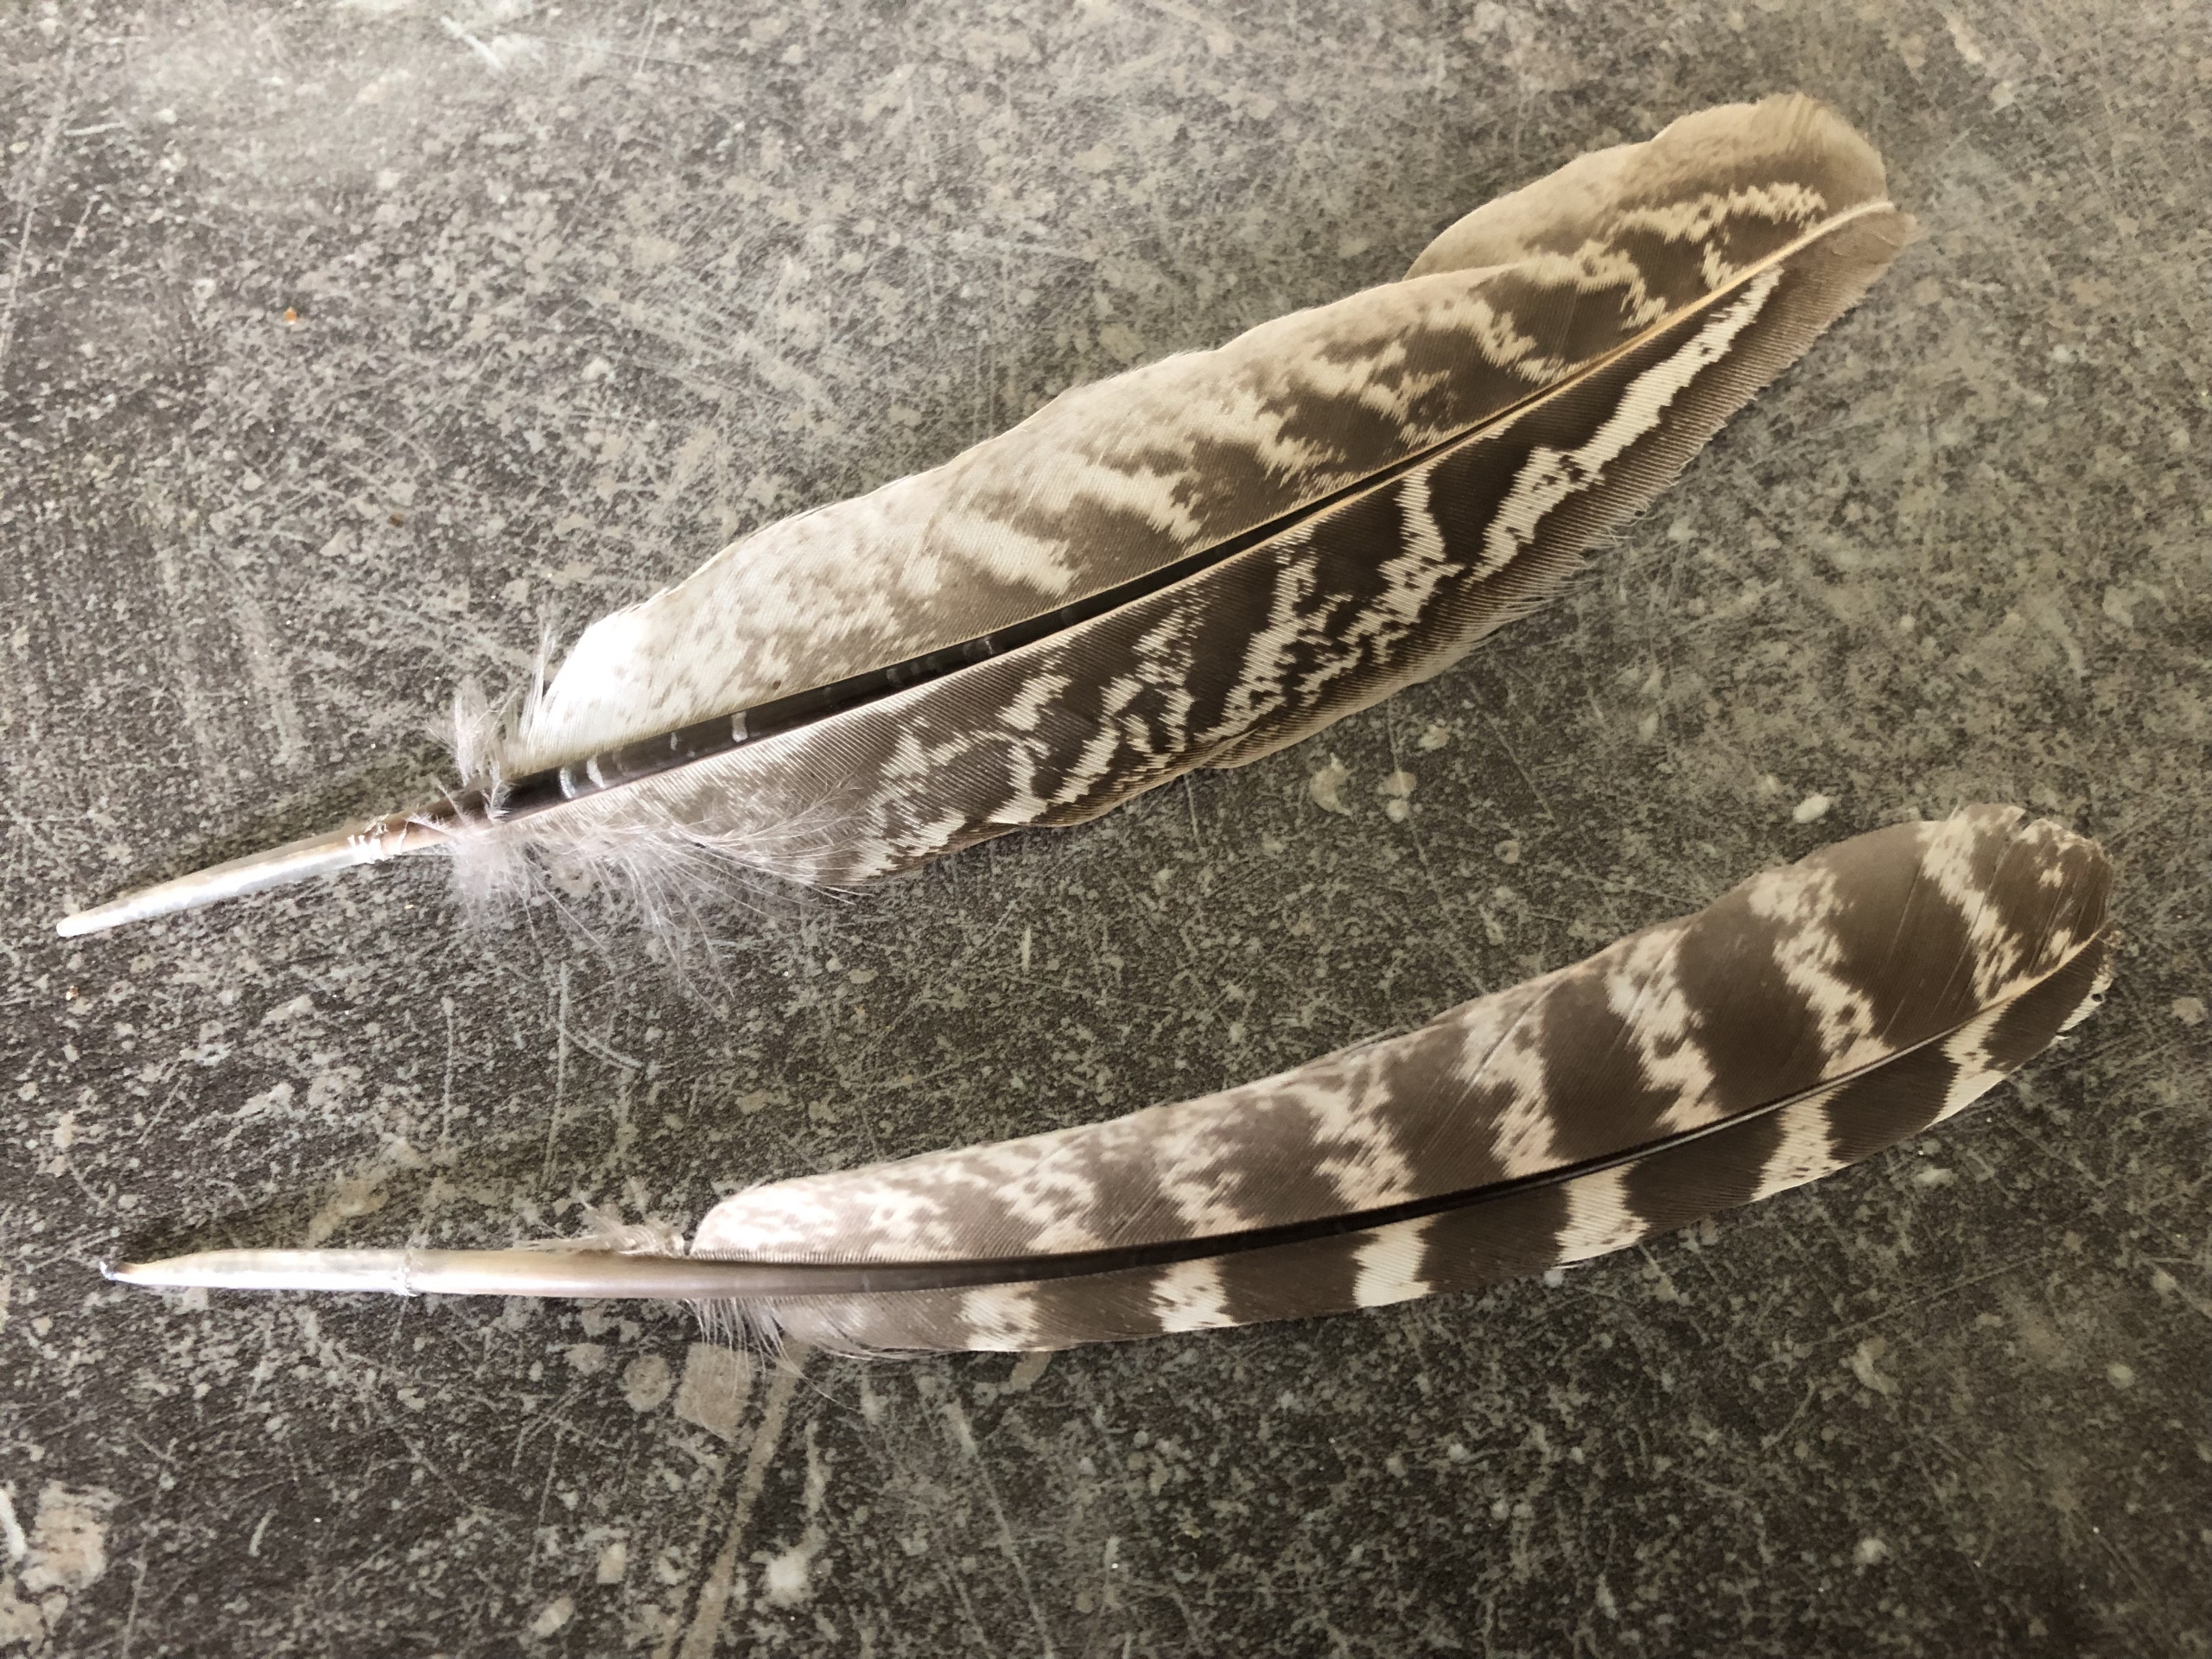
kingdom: Animalia
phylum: Chordata
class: Aves
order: Galliformes
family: Phasianidae
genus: Phasianus
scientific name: Phasianus colchicus
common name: Fasan
